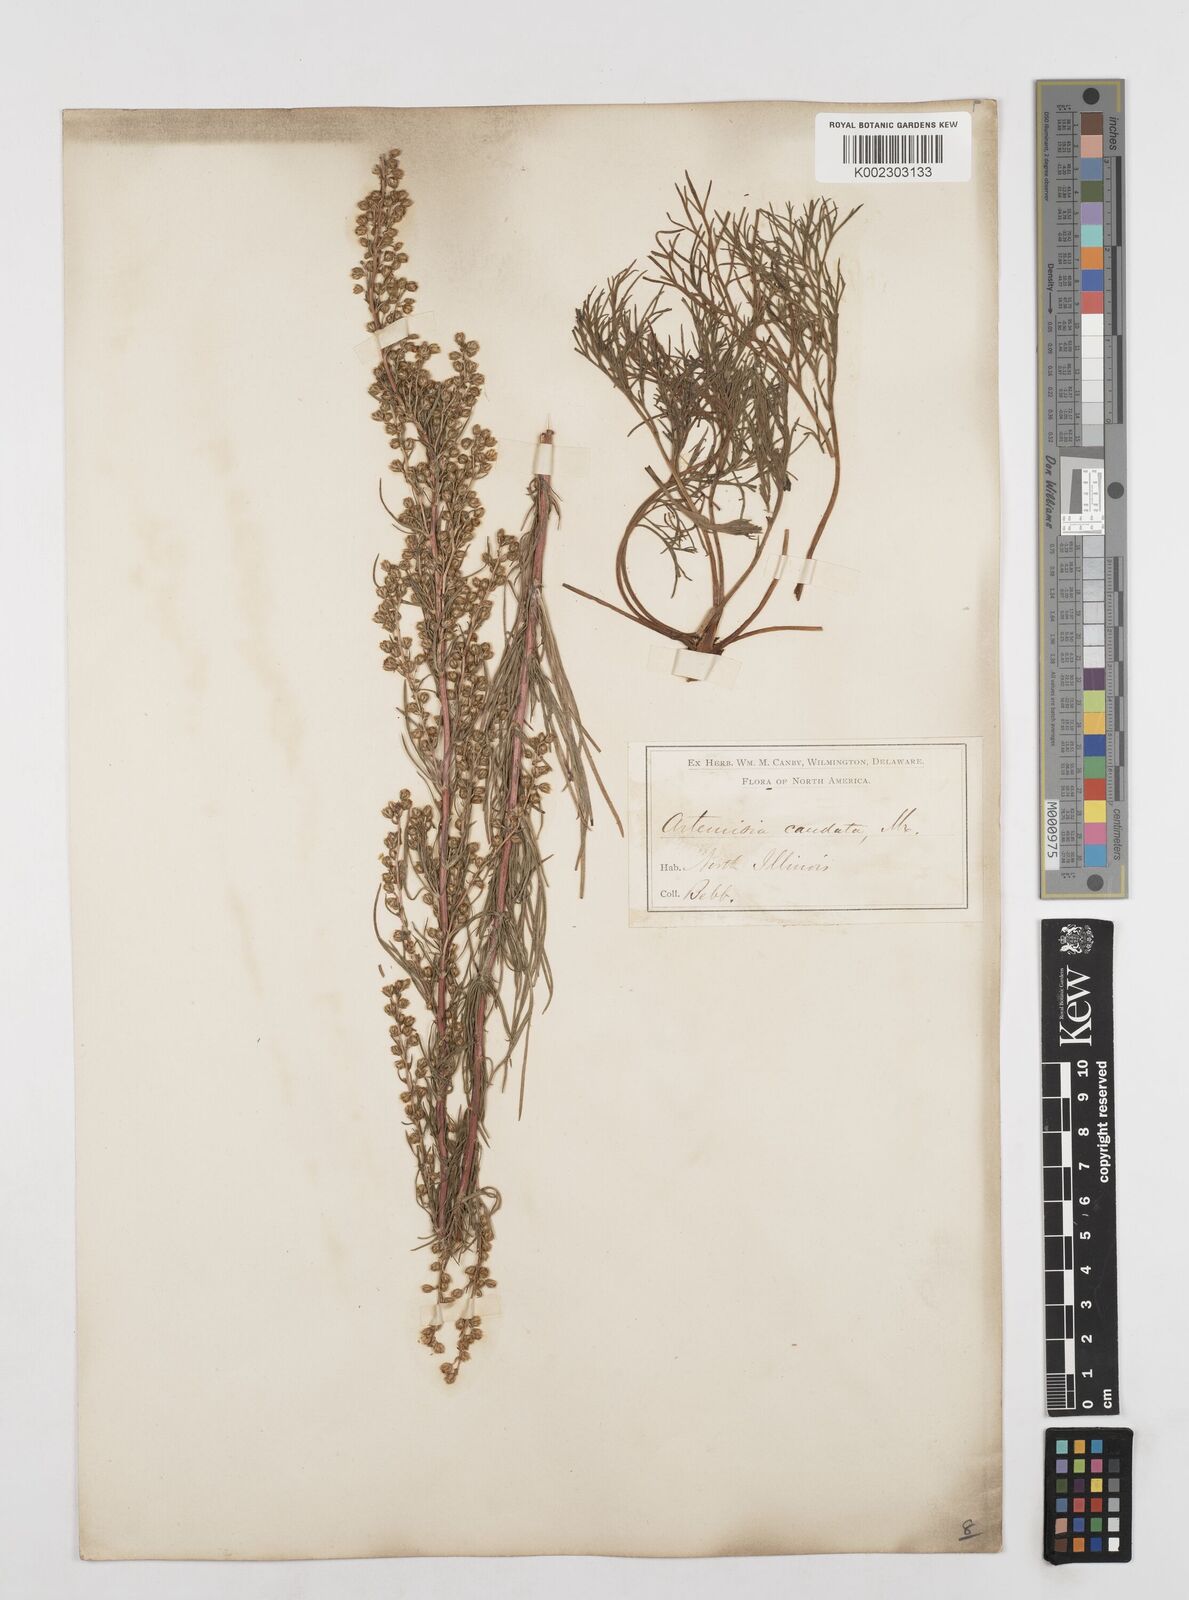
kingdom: Plantae
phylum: Tracheophyta
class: Magnoliopsida
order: Asterales
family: Asteraceae
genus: Artemisia
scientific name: Artemisia campestris
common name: Field wormwood
